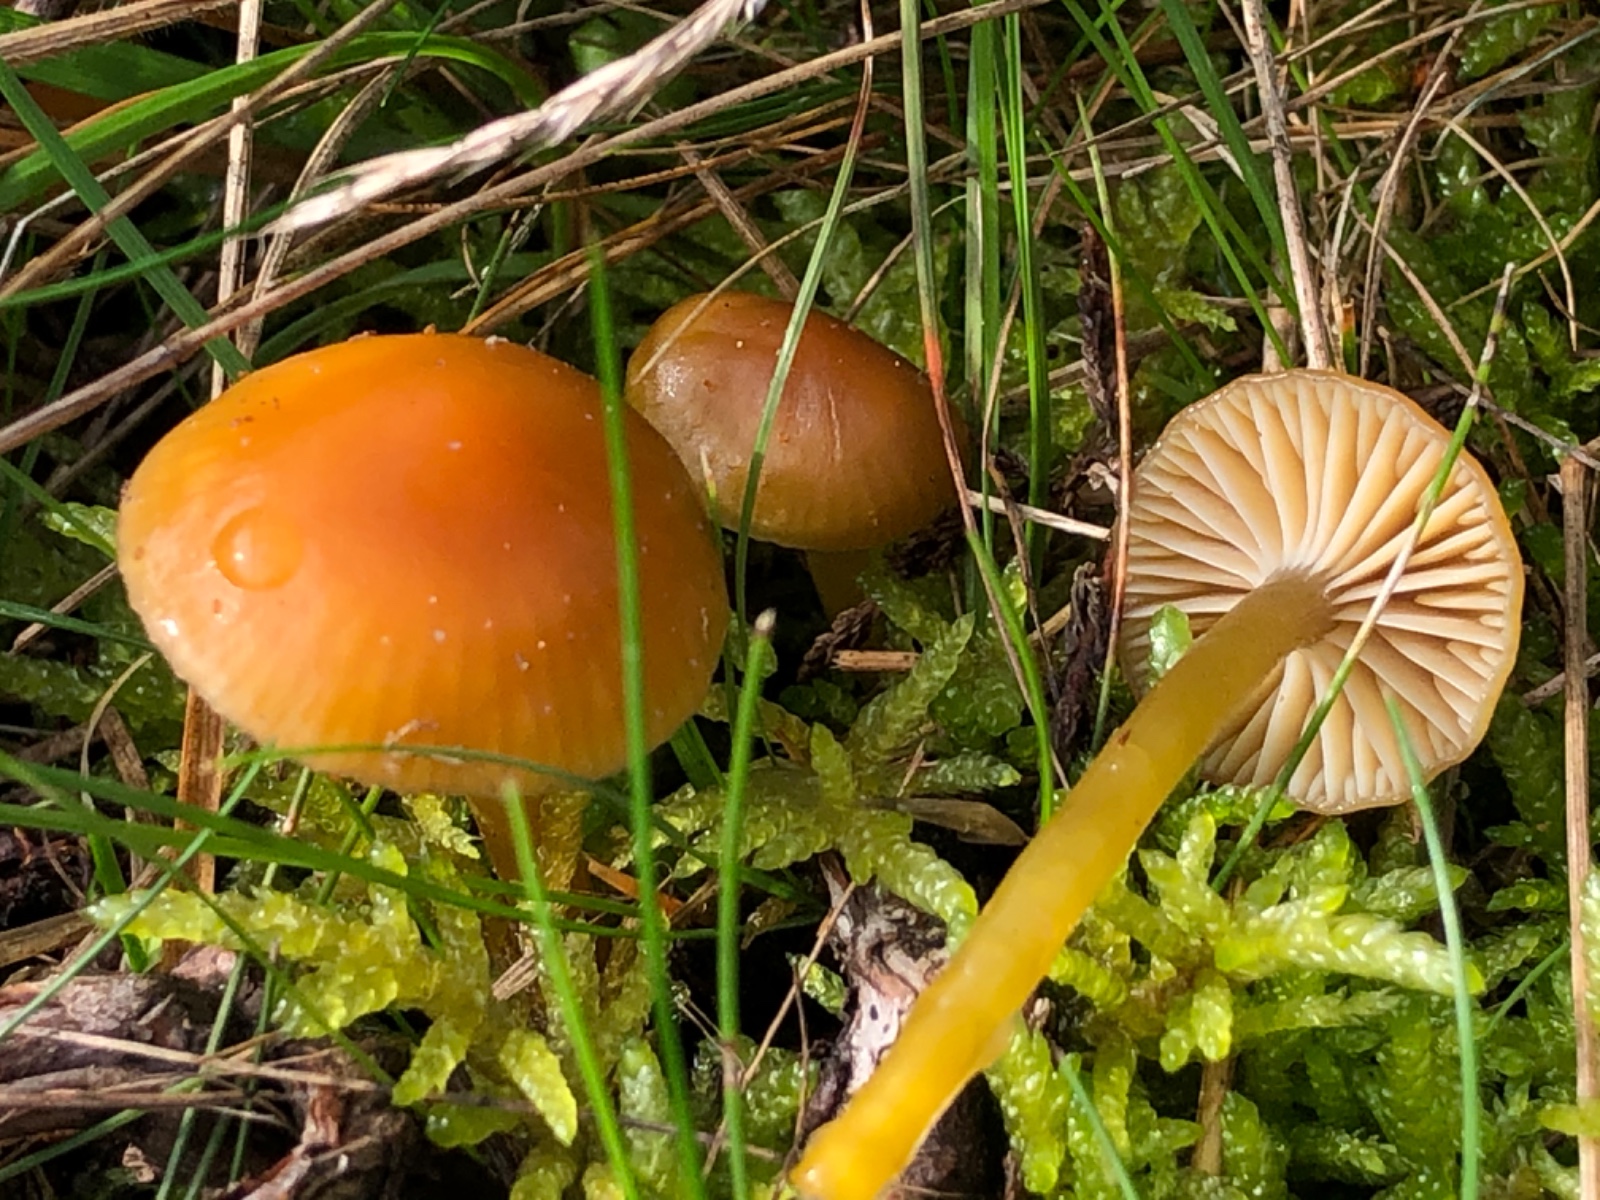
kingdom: Fungi
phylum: Basidiomycota
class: Agaricomycetes
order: Agaricales
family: Hygrophoraceae
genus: Gliophorus
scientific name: Gliophorus laetus
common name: brusk-vokshat
